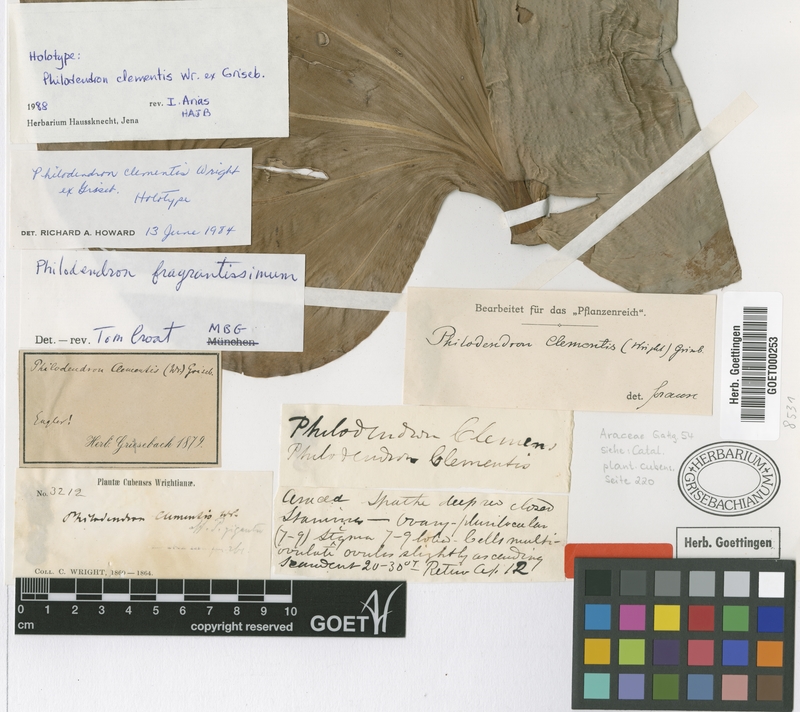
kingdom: Plantae
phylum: Tracheophyta
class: Liliopsida
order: Alismatales
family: Araceae
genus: Philodendron
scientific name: Philodendron fragrantissimum
